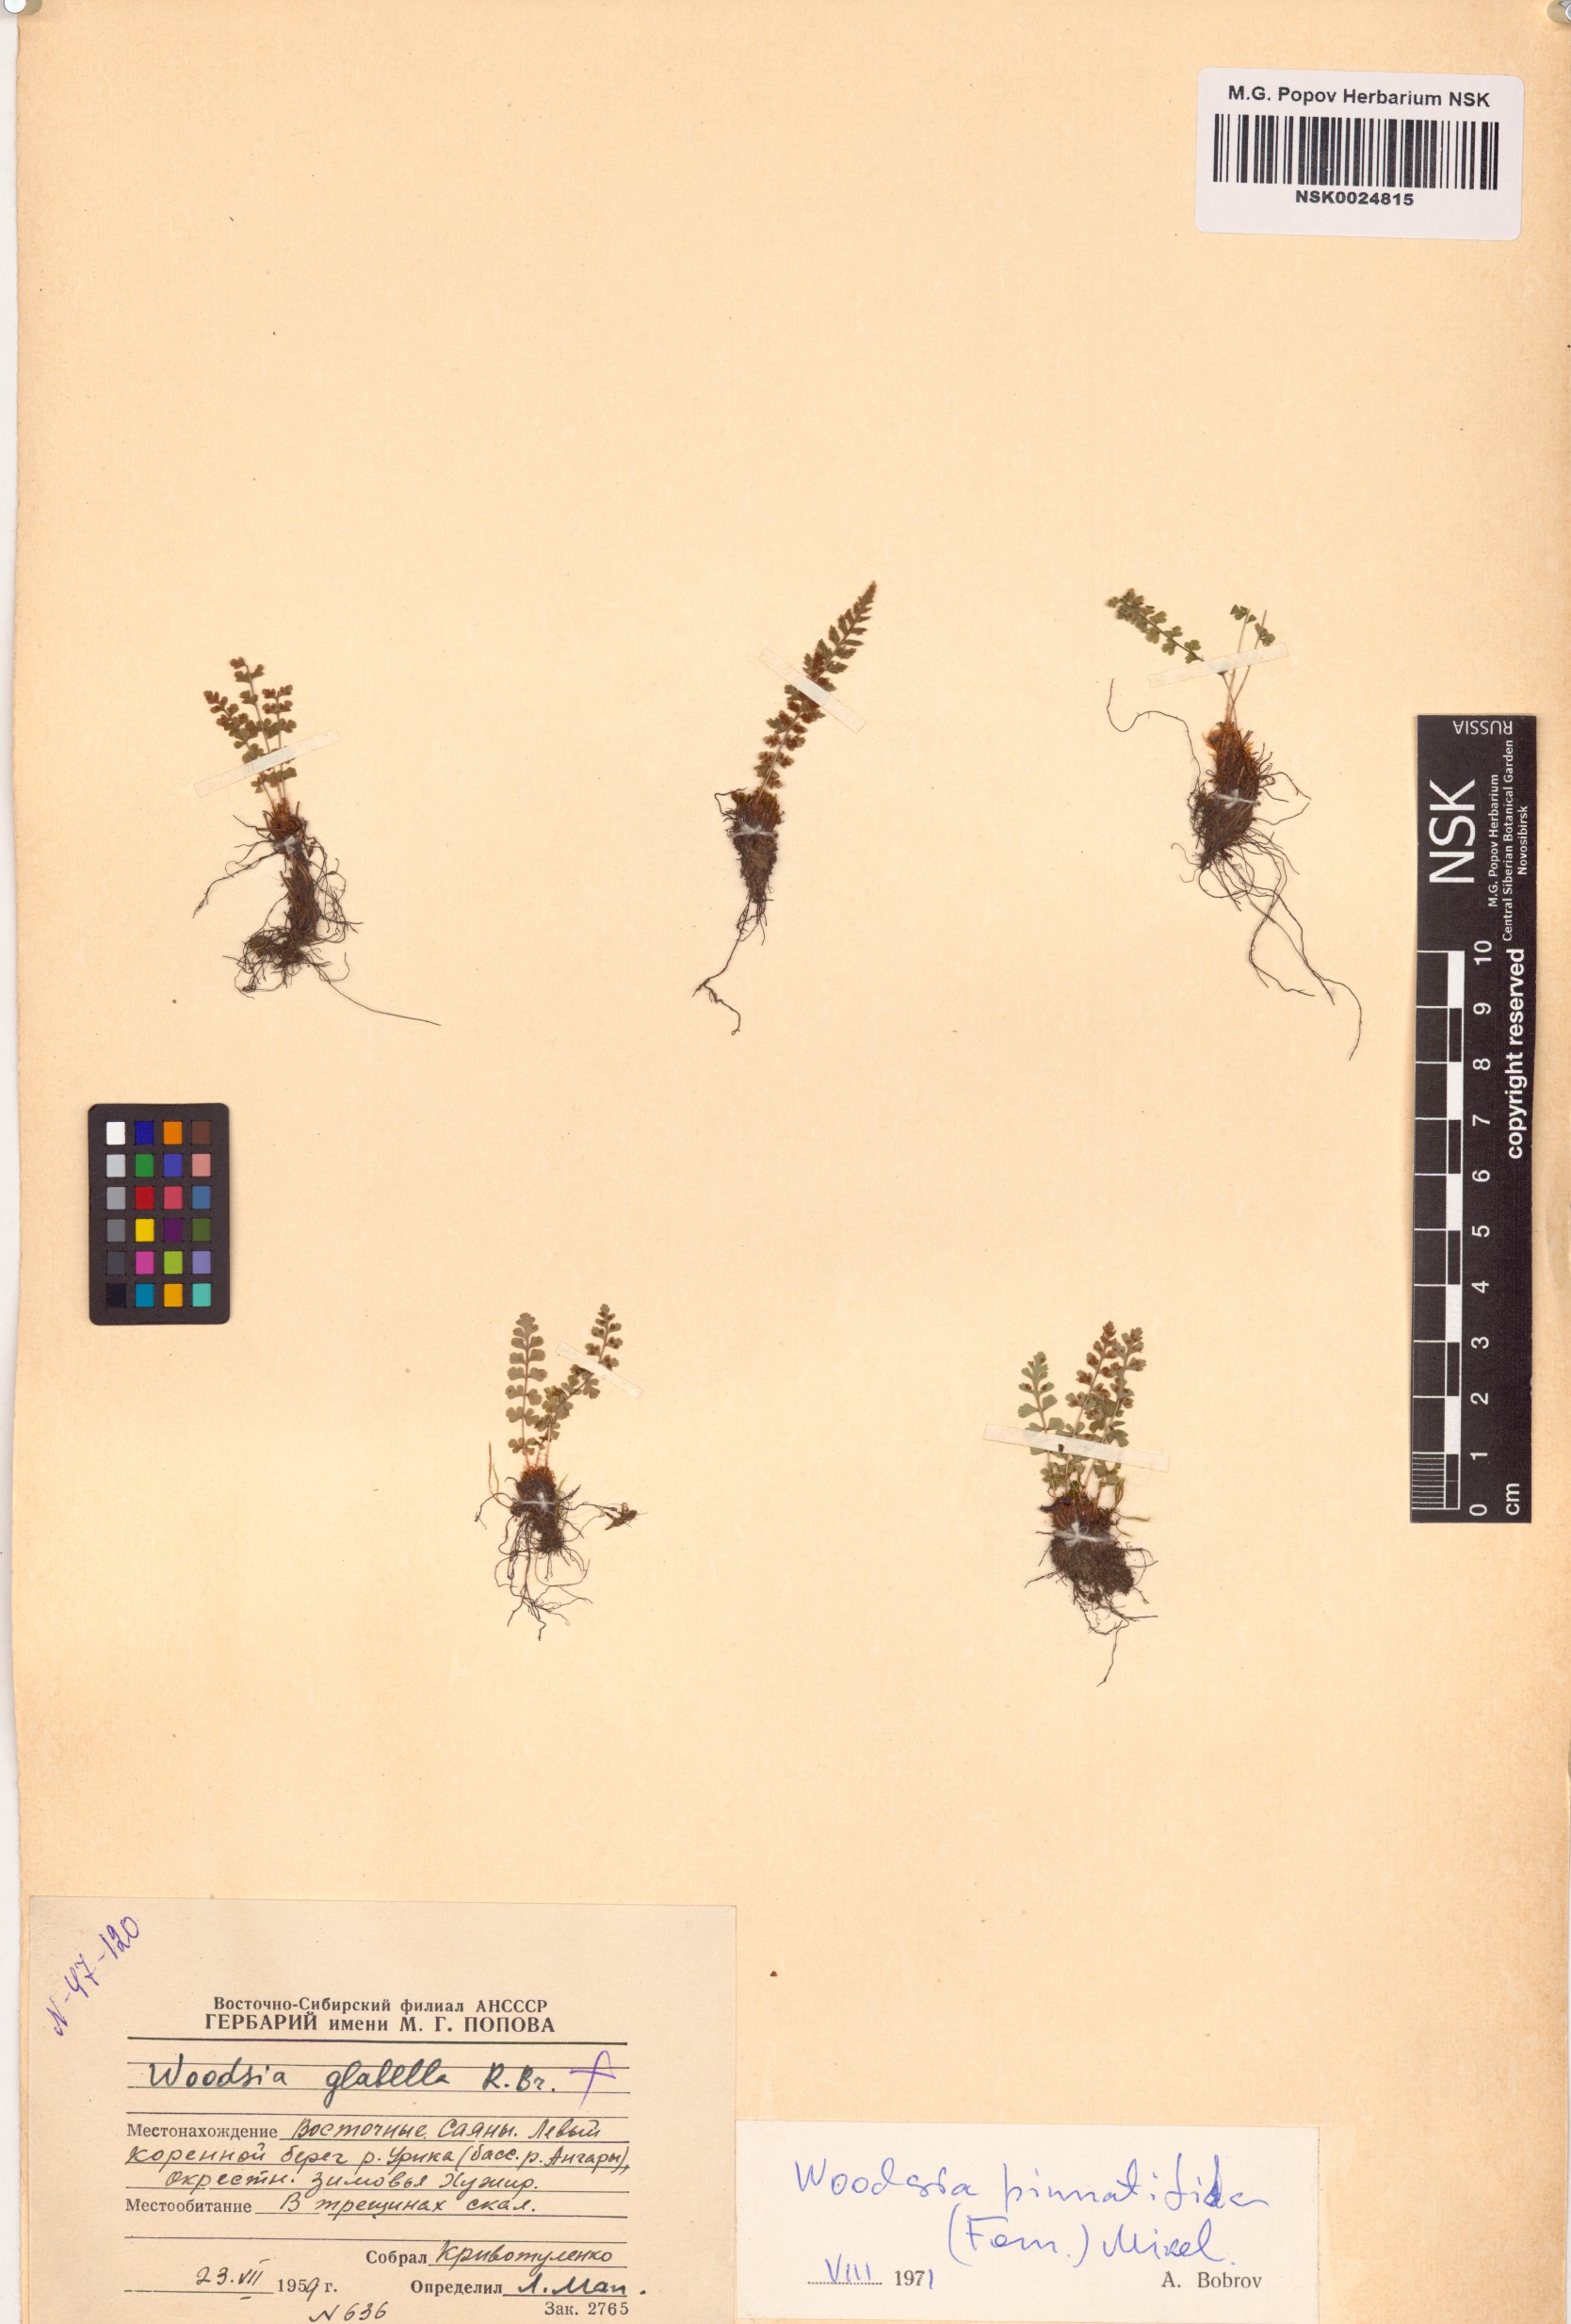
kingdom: Plantae
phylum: Tracheophyta
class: Polypodiopsida
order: Polypodiales
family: Woodsiaceae
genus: Woodsia
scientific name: Woodsia pulchella
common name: Graceful woodsia
